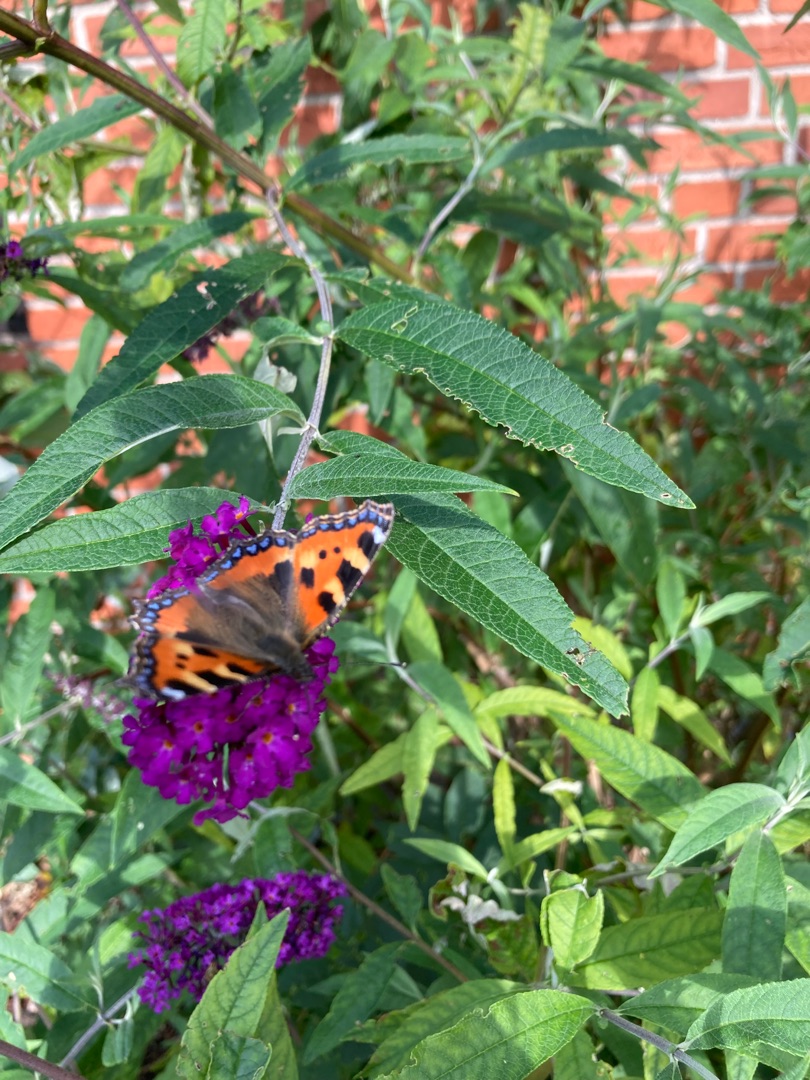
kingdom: Animalia
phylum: Arthropoda
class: Insecta
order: Lepidoptera
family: Nymphalidae
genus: Aglais
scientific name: Aglais urticae
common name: Nældens takvinge
